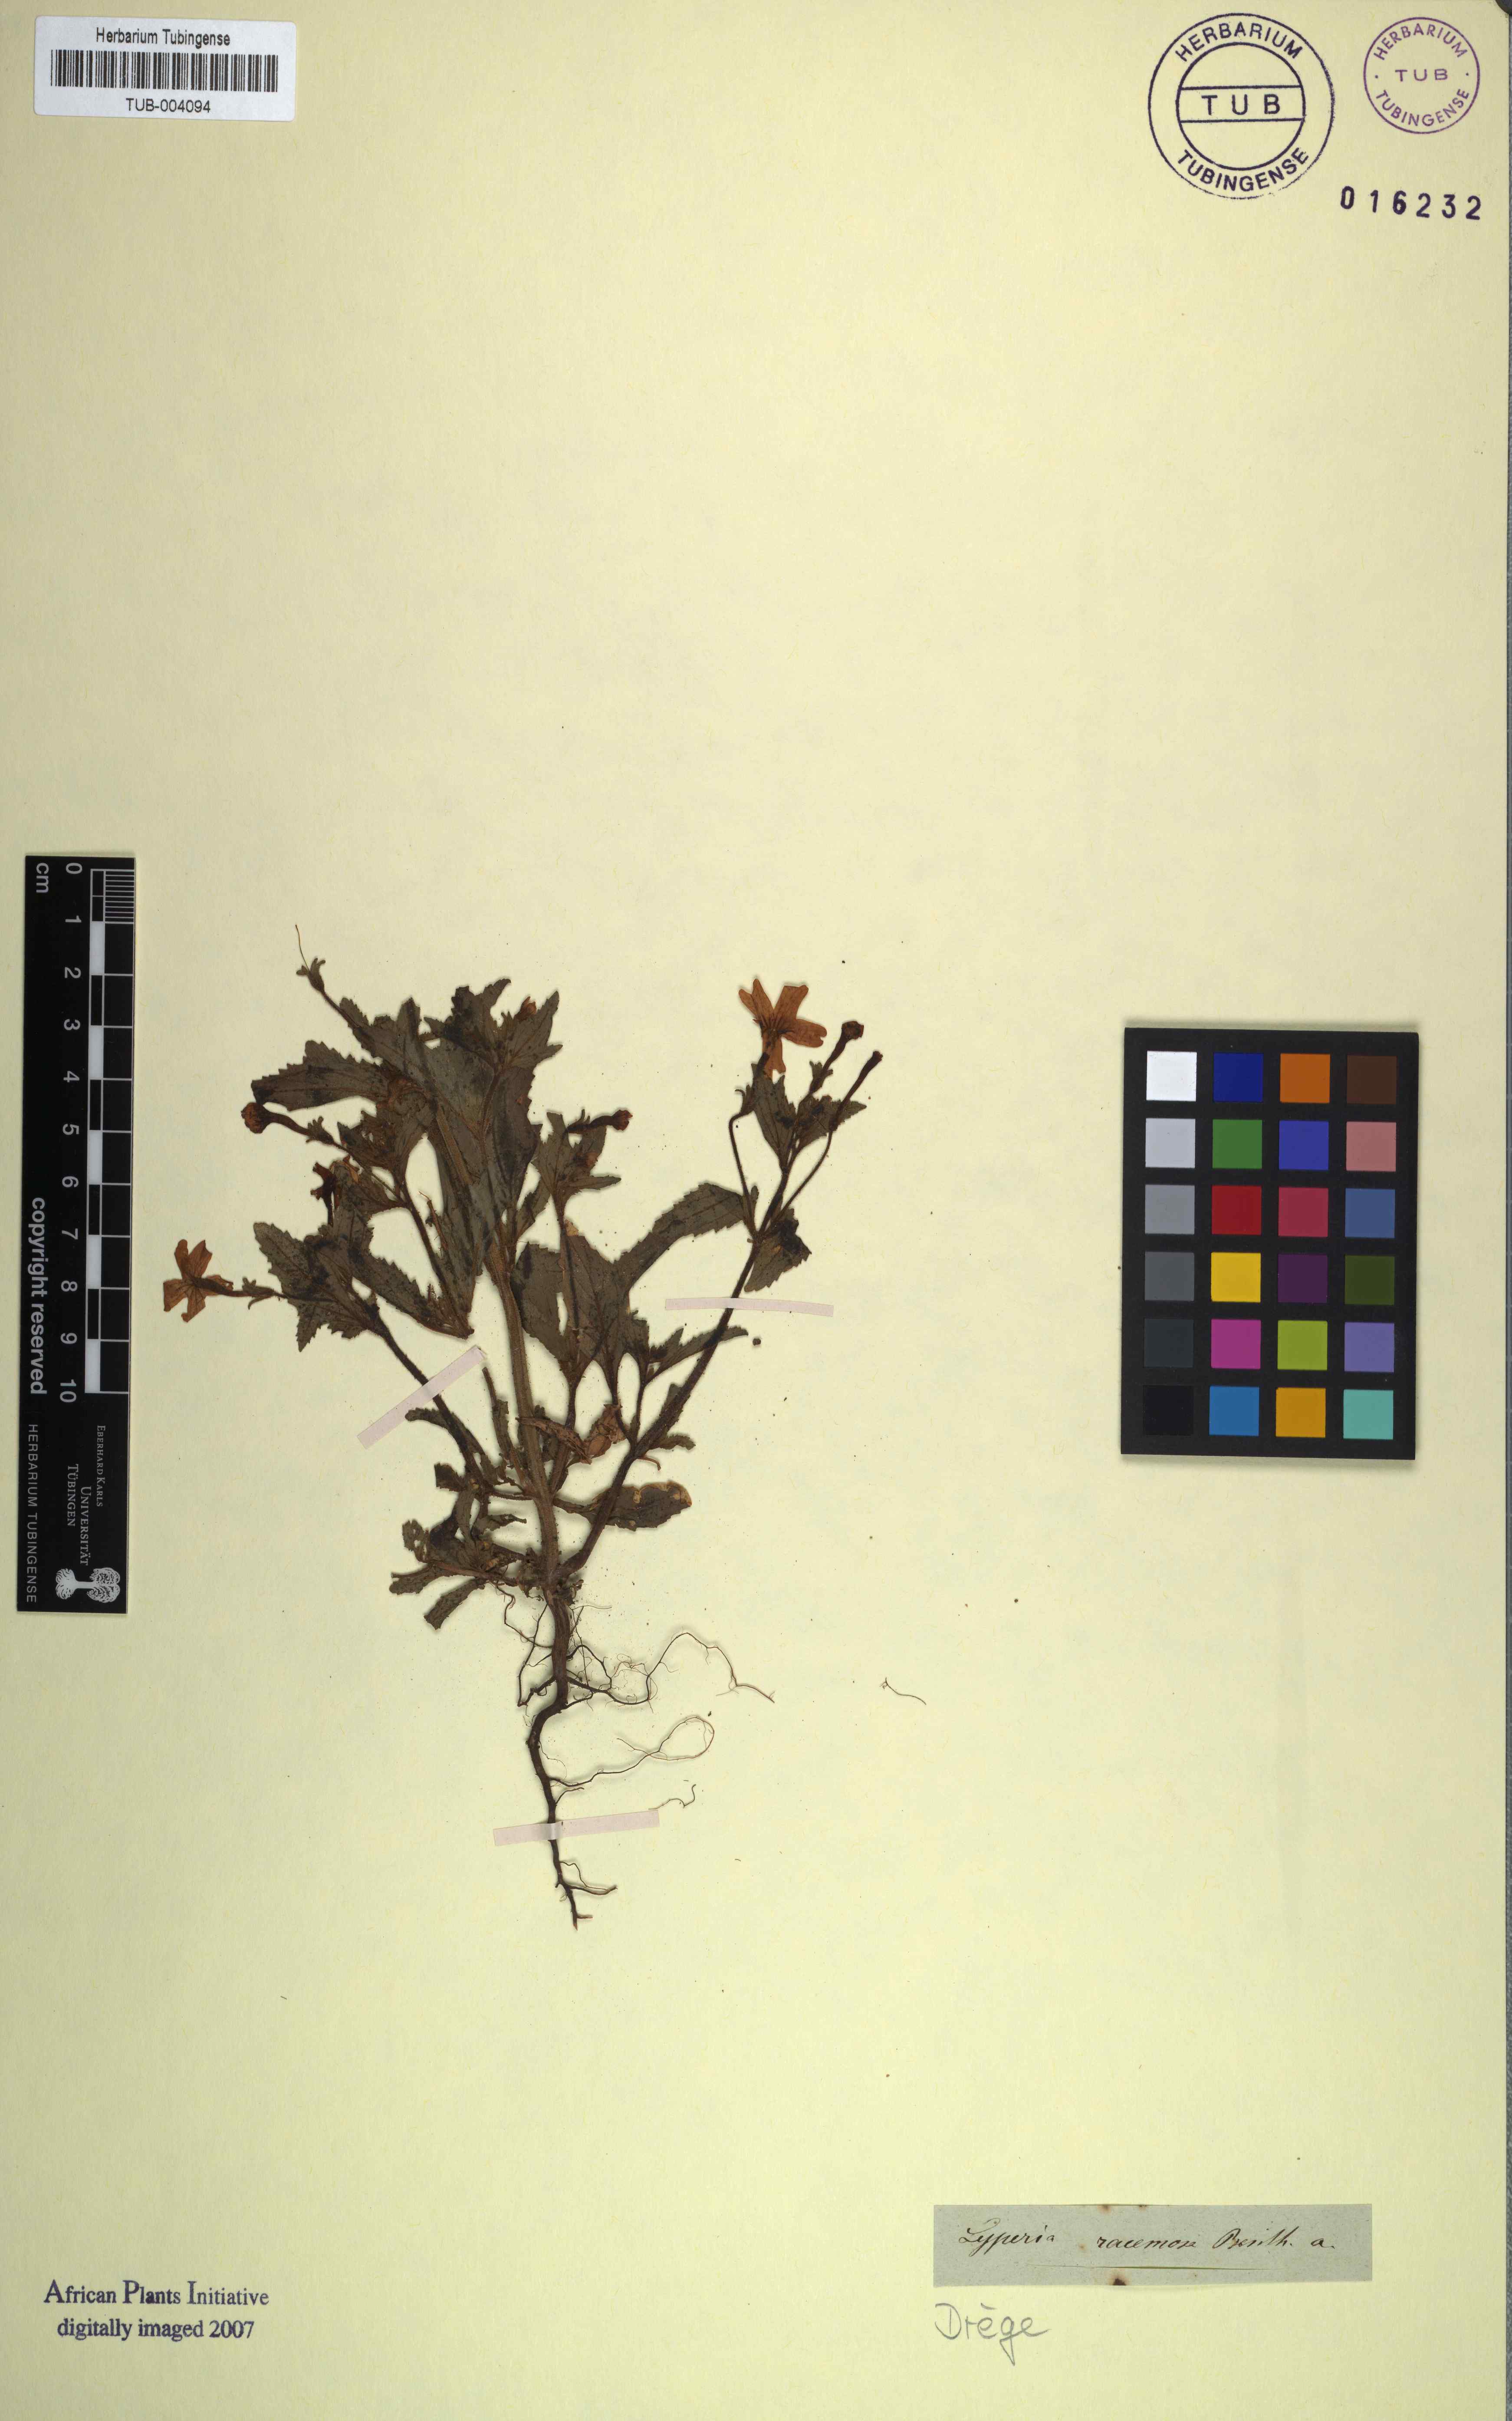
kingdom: Plantae
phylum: Tracheophyta
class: Magnoliopsida
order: Lamiales
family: Scrophulariaceae
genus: Jamesbrittenia
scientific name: Jamesbrittenia racemosa
